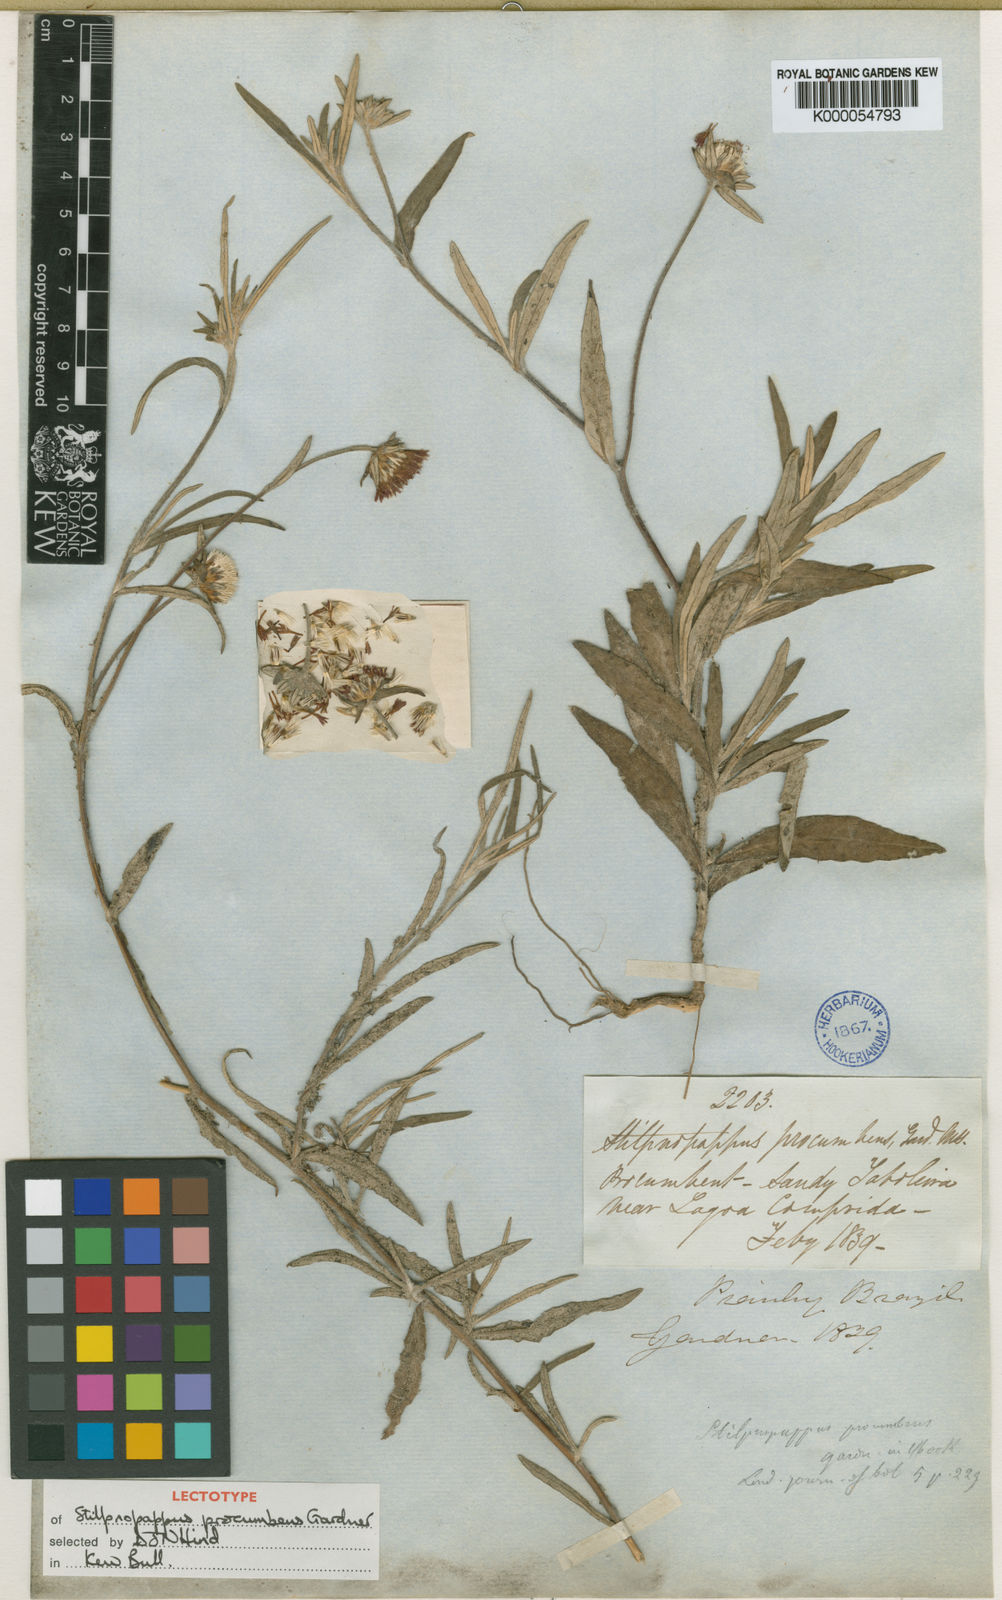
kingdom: Plantae
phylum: Tracheophyta
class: Magnoliopsida
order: Asterales
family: Asteraceae
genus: Stilpnopappus
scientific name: Stilpnopappus trichospiroides
